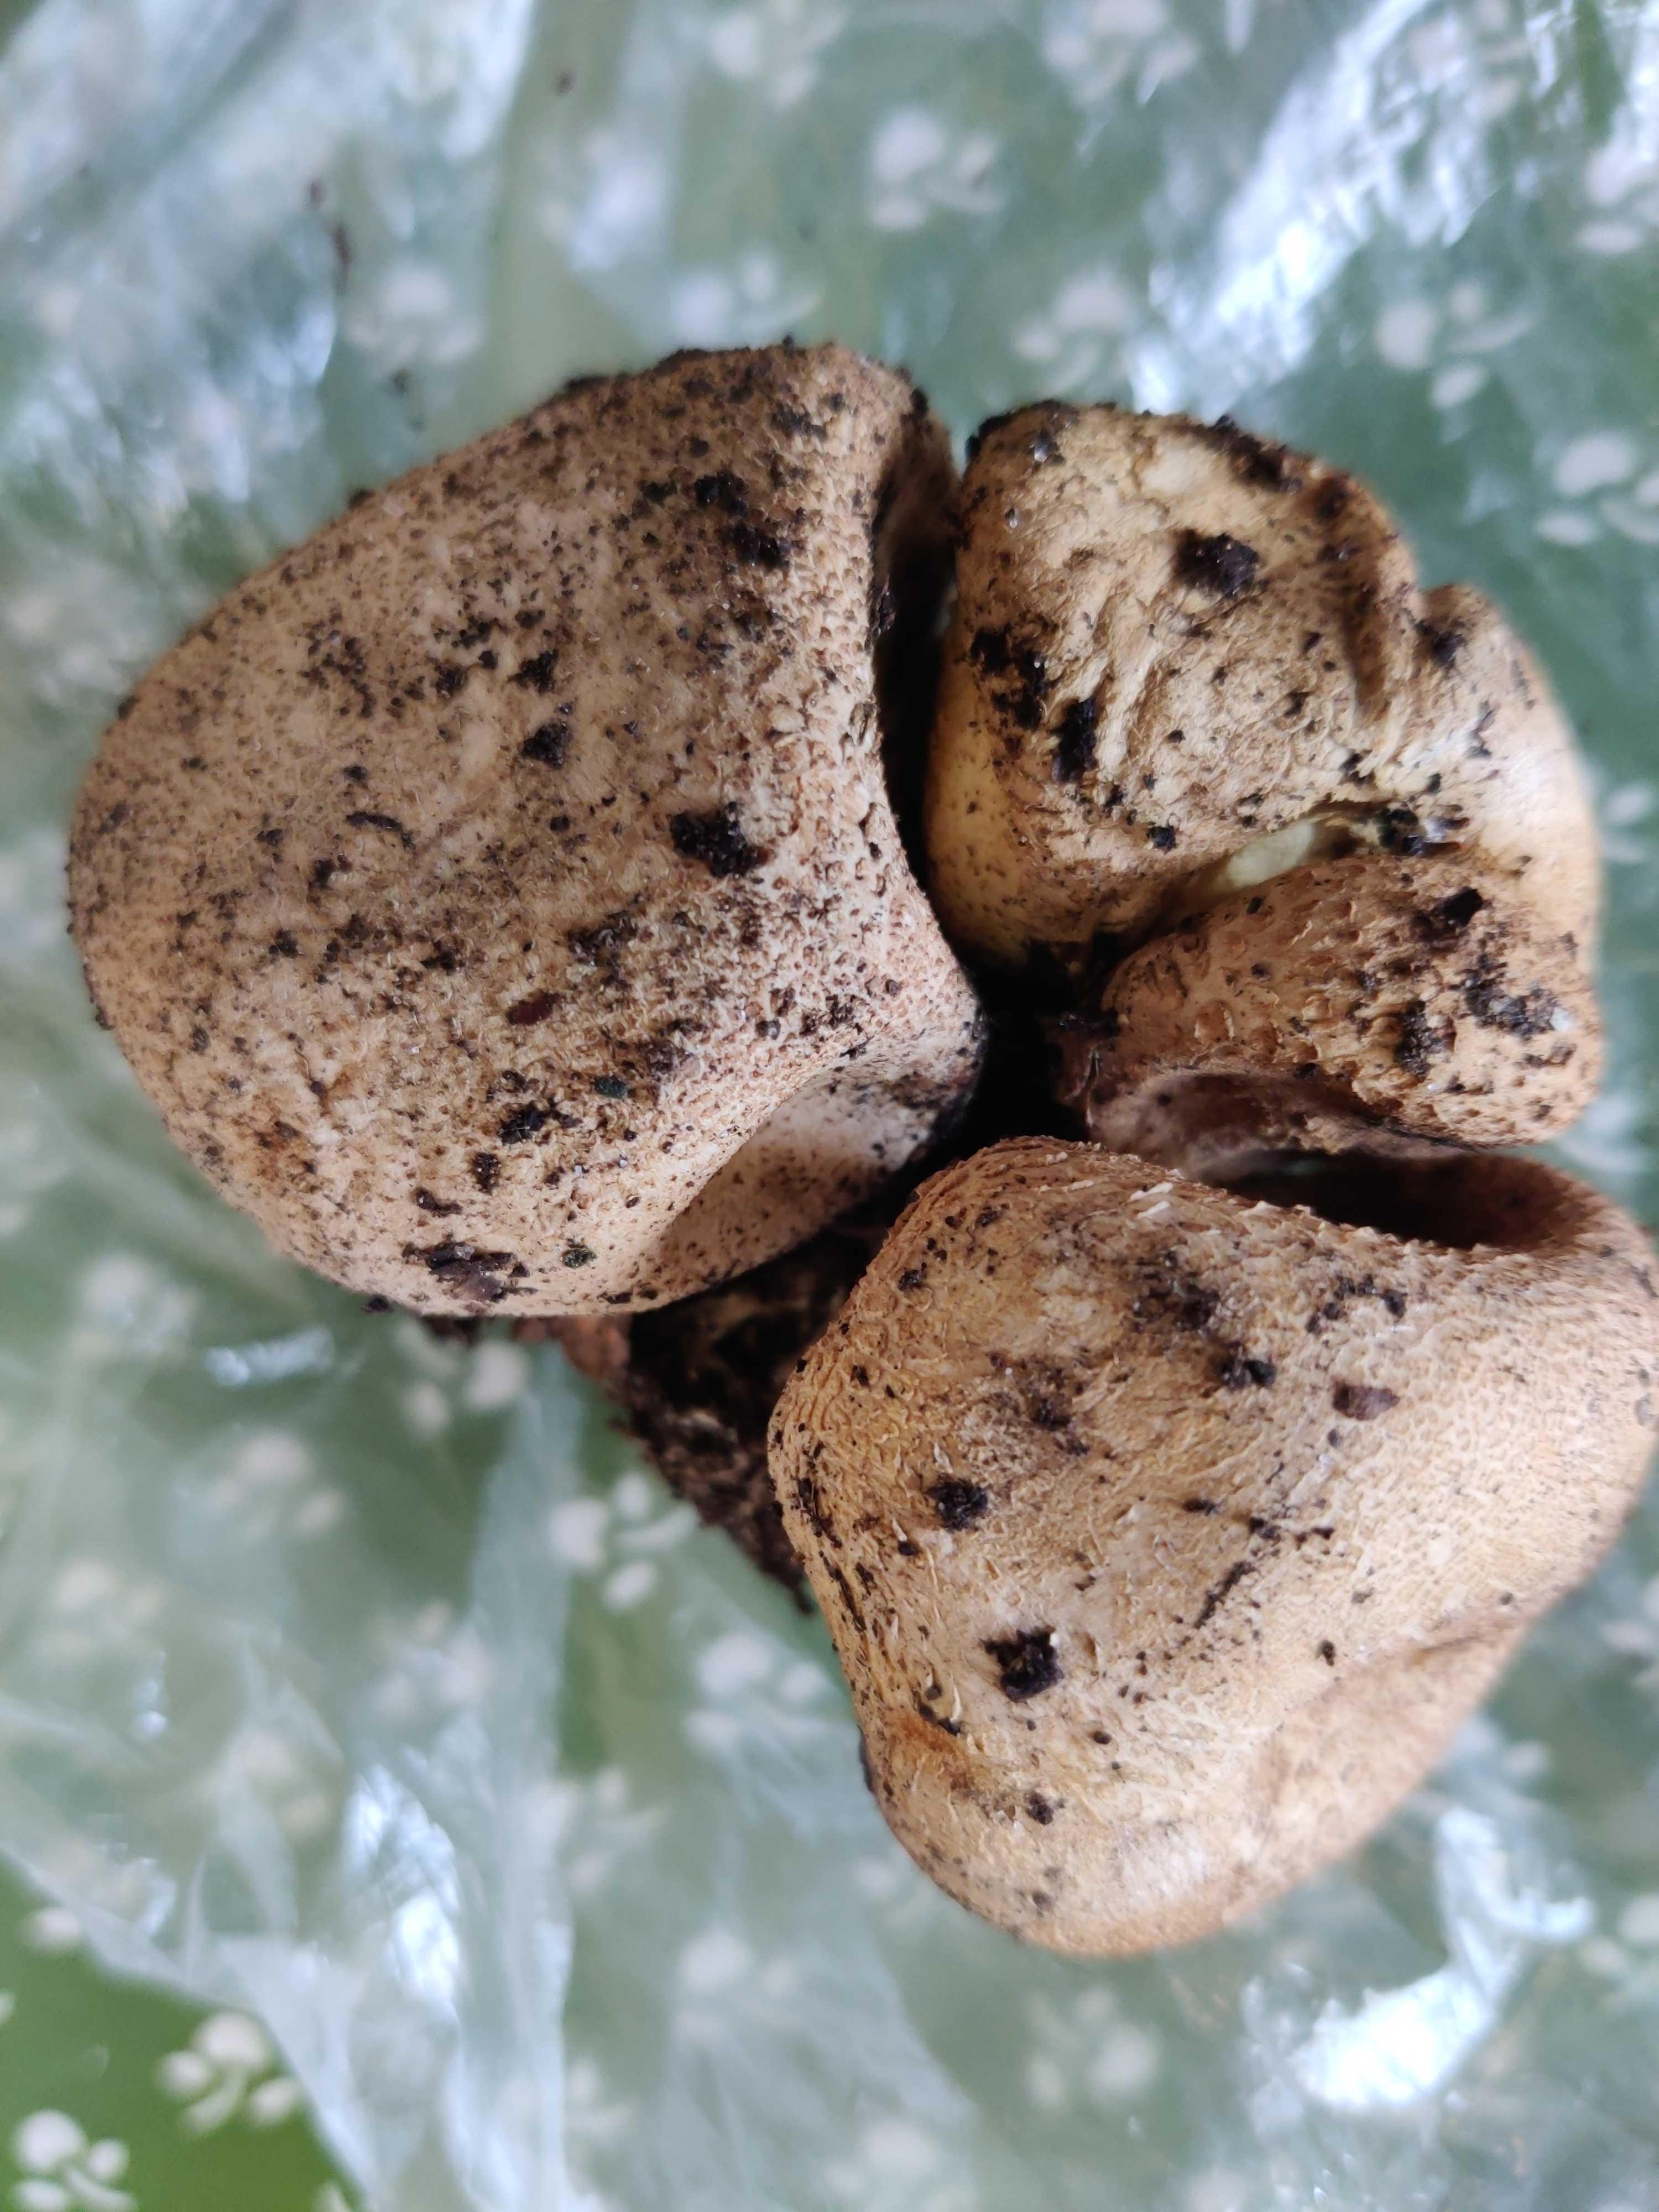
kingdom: Fungi
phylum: Basidiomycota
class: Agaricomycetes
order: Boletales
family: Sclerodermataceae
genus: Scleroderma
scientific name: Scleroderma
